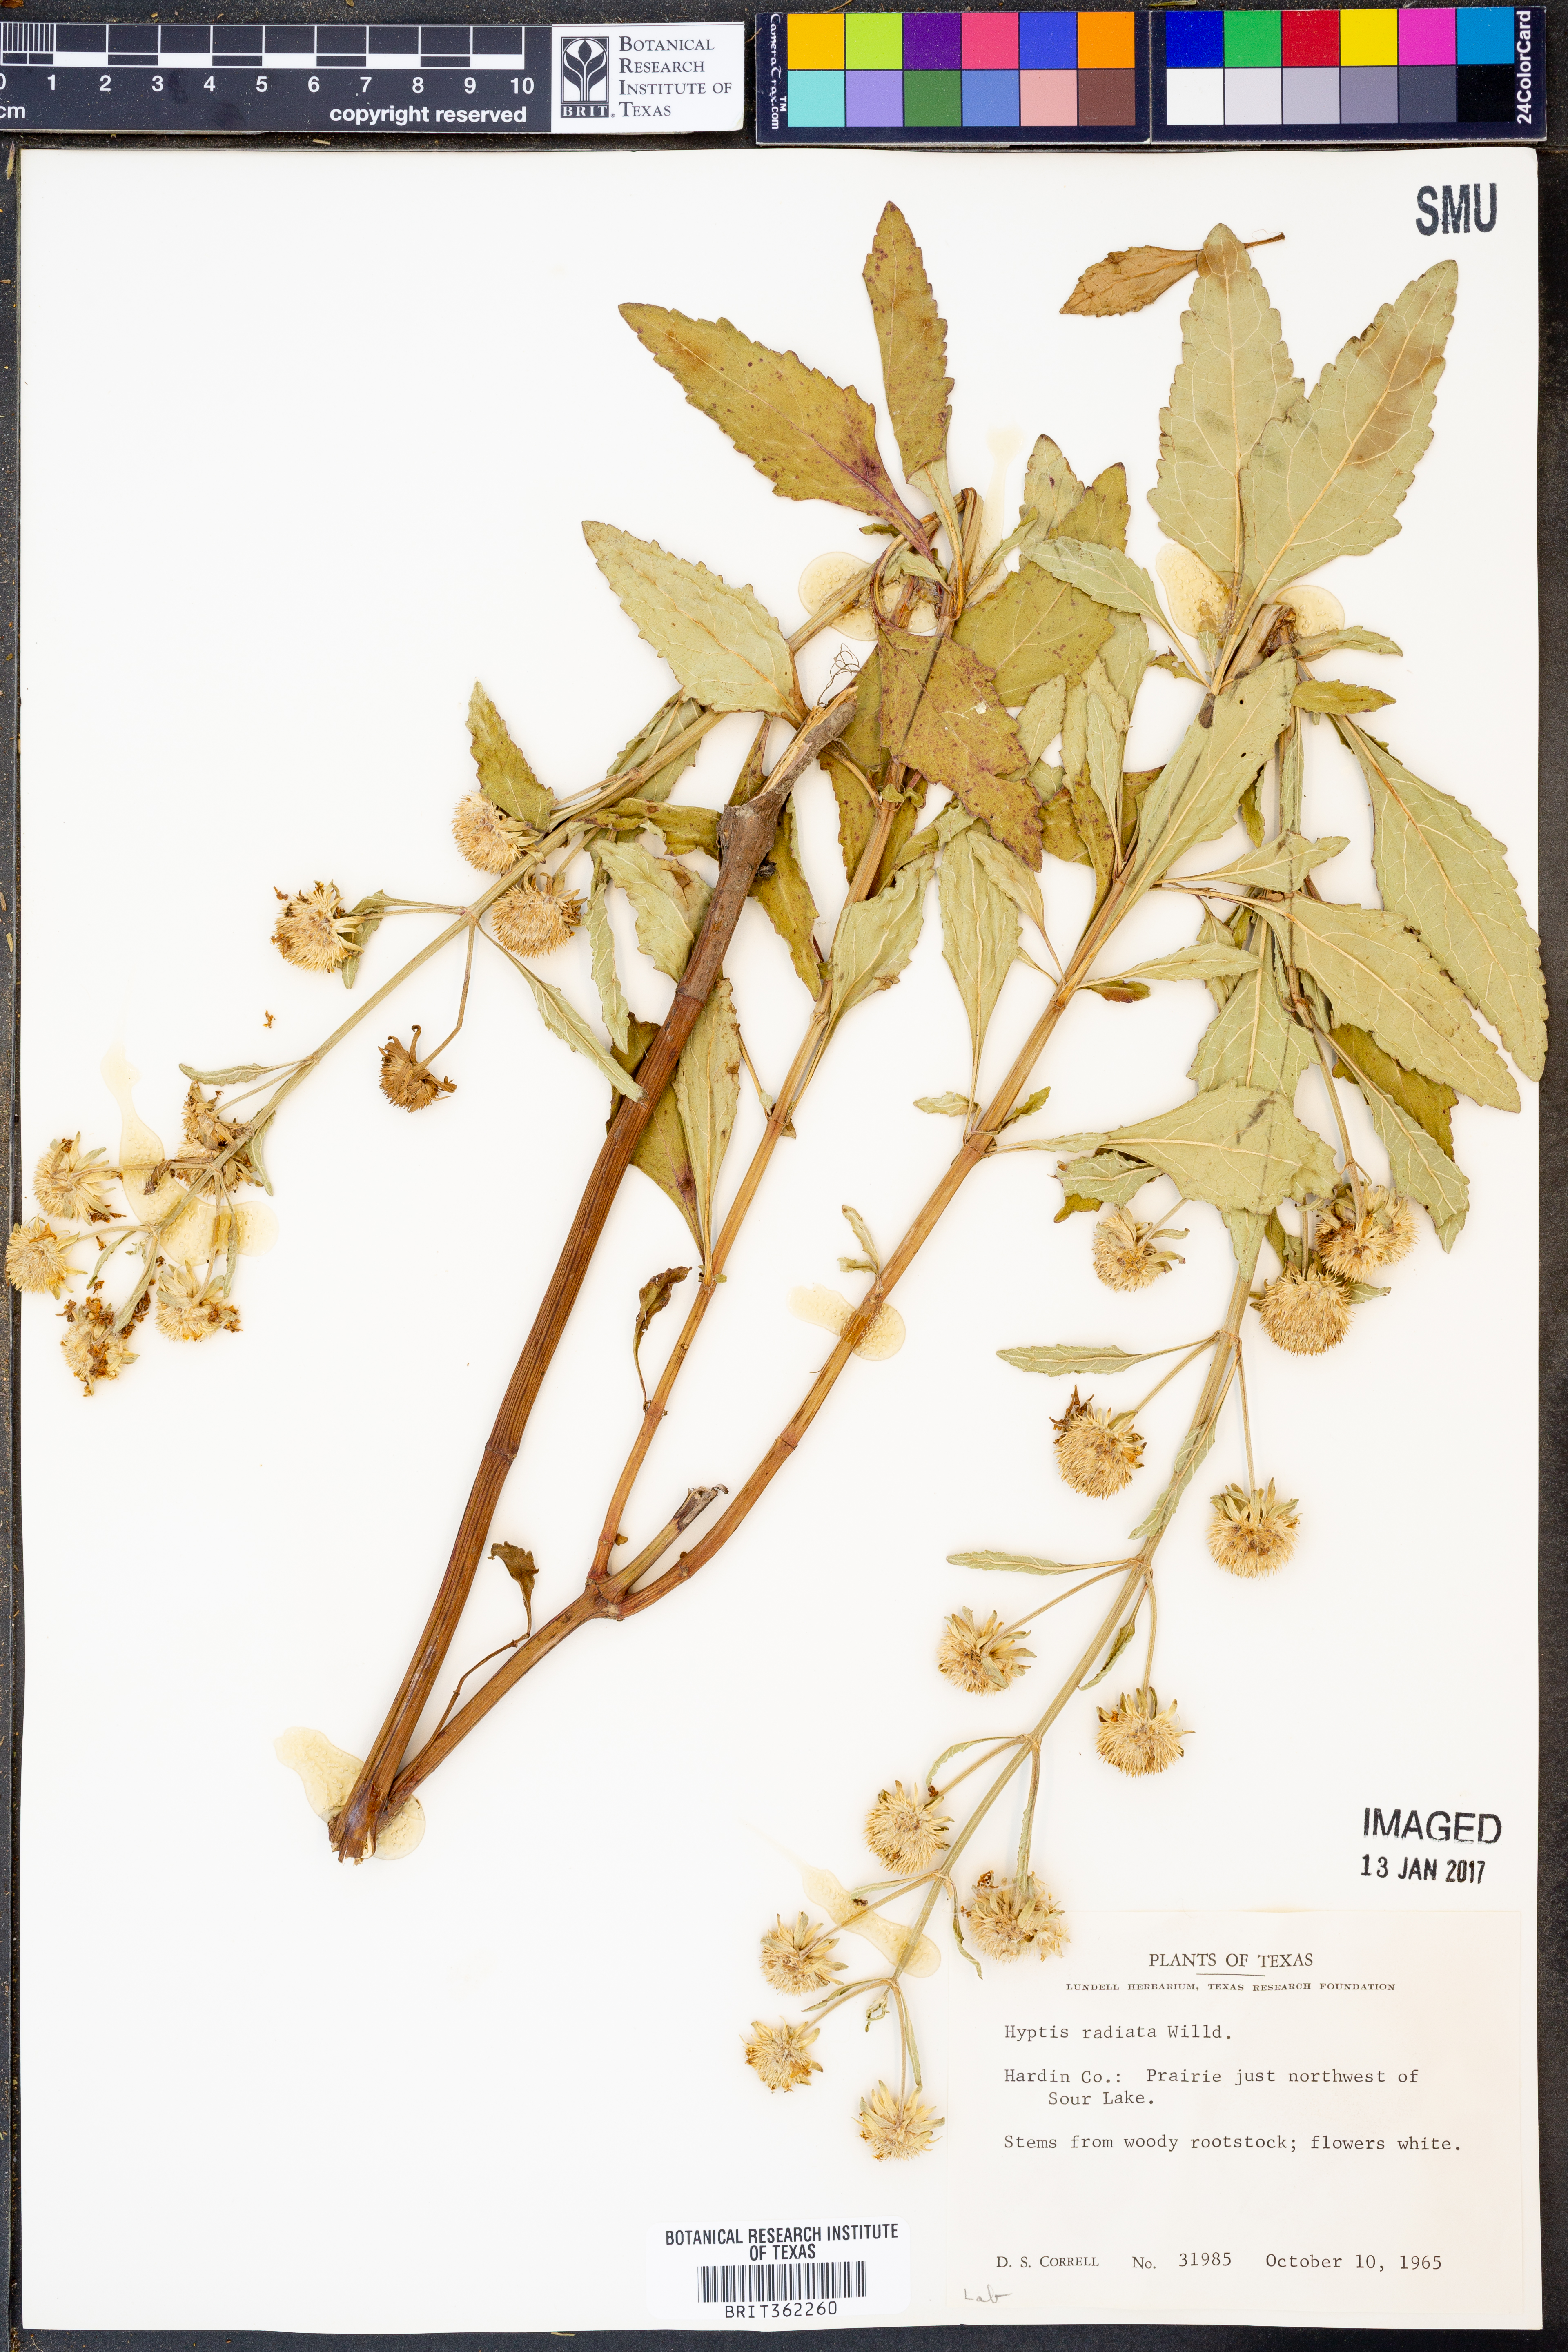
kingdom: Plantae
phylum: Tracheophyta
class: Magnoliopsida
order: Lamiales
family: Lamiaceae
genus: Hyptis
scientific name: Hyptis alata
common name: Cluster bush-mint
